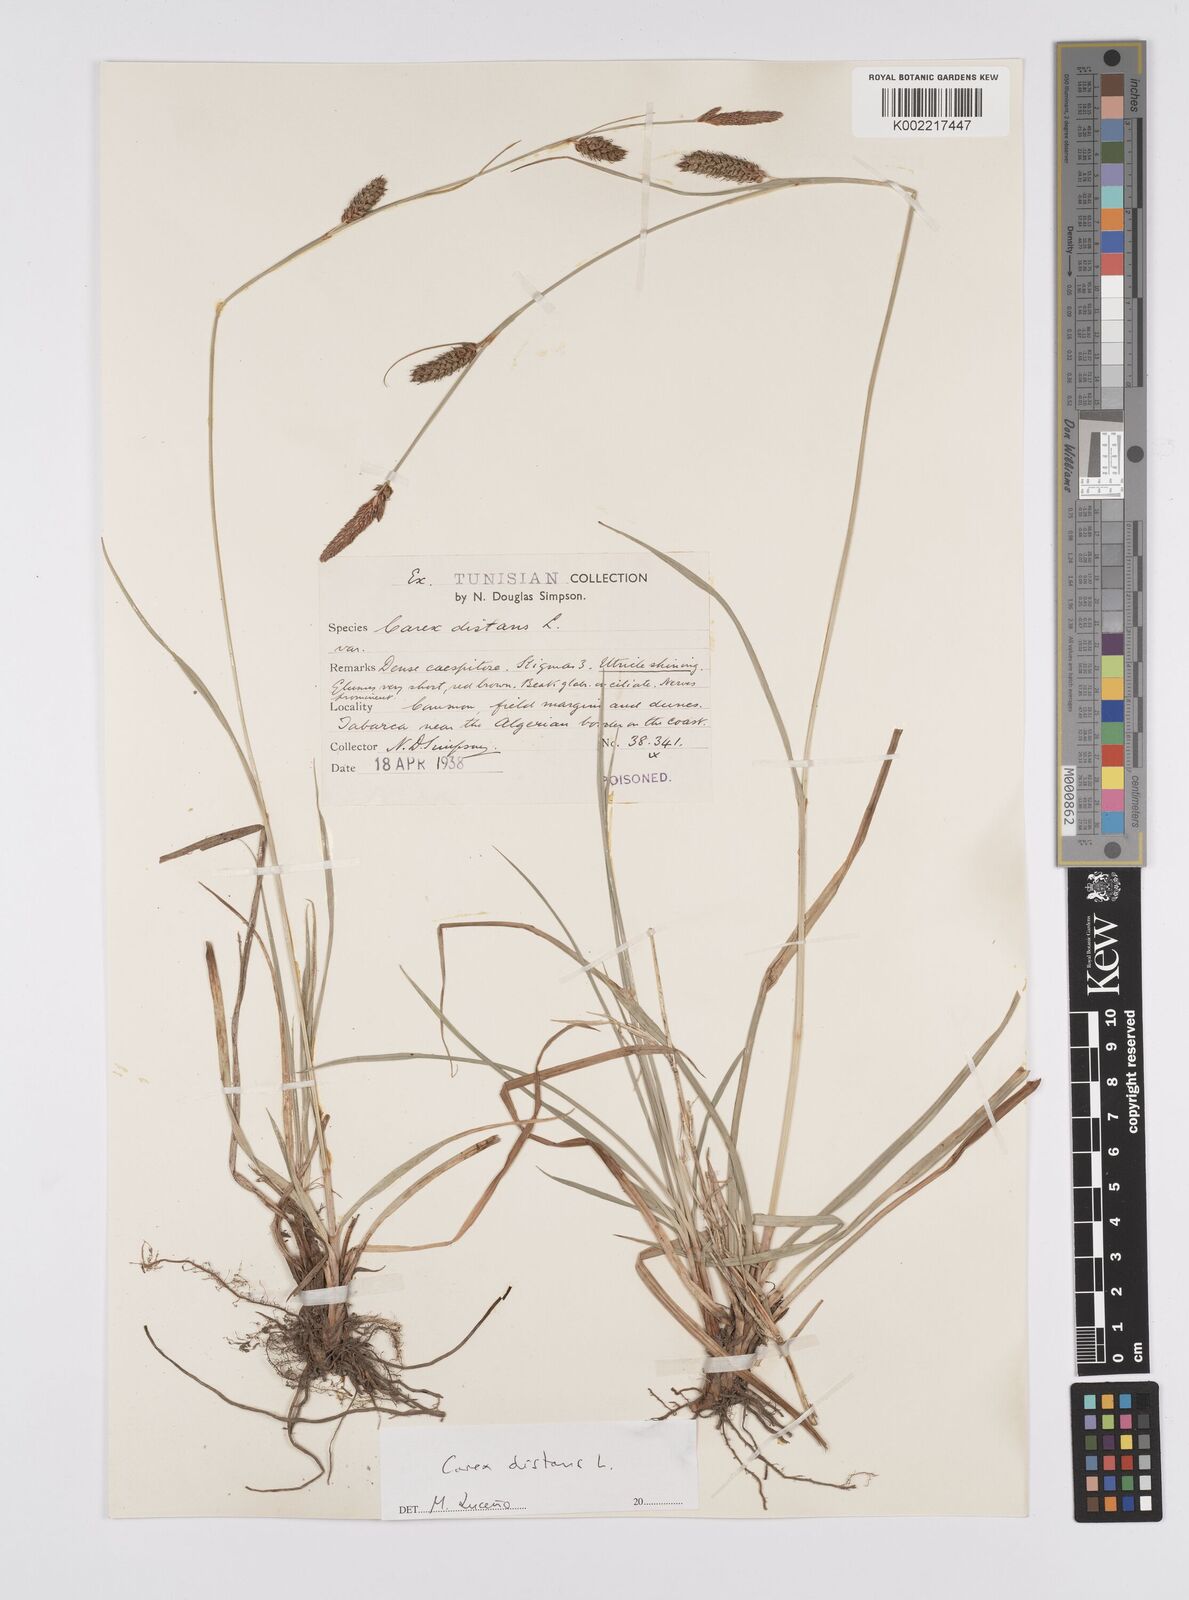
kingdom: Plantae
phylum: Tracheophyta
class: Liliopsida
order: Poales
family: Cyperaceae
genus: Carex
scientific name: Carex distans
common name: Distant sedge
